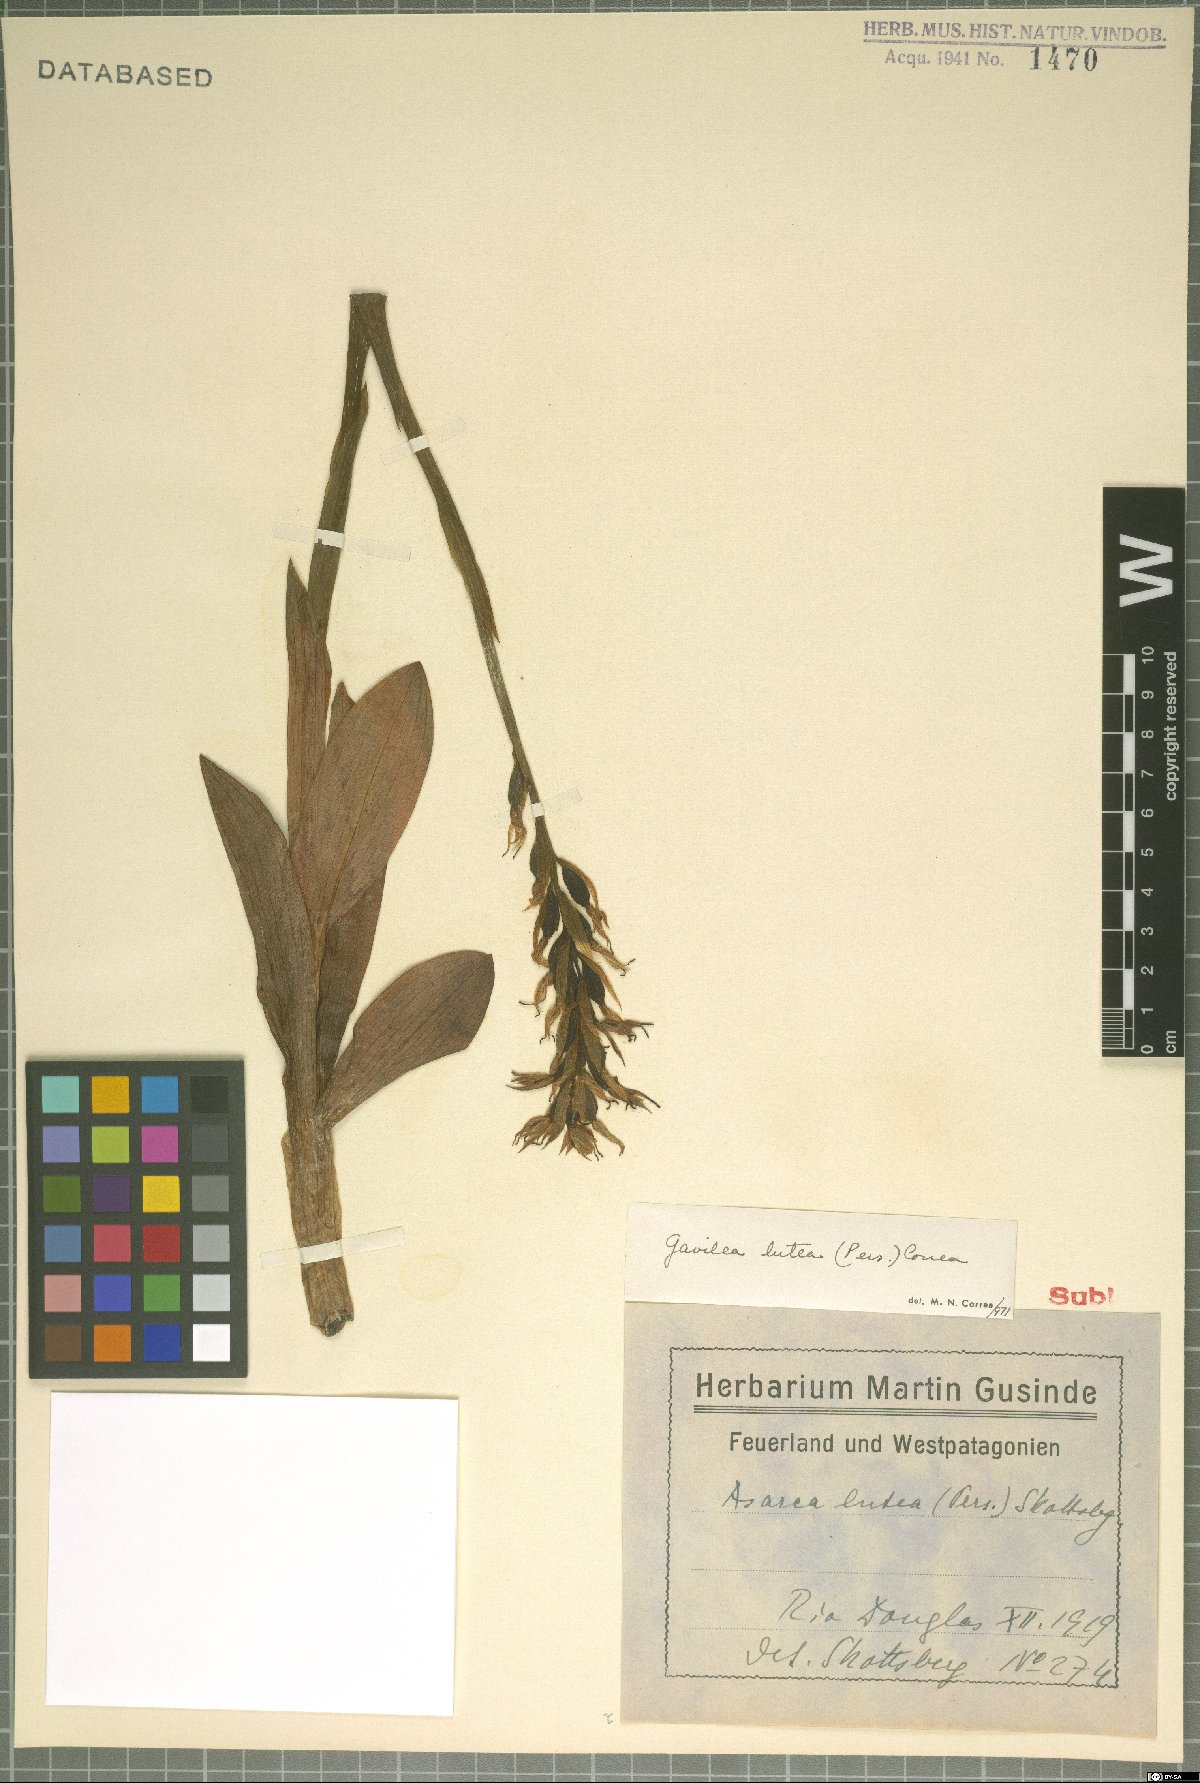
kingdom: Plantae
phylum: Tracheophyta
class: Liliopsida
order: Asparagales
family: Orchidaceae
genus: Gavilea
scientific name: Gavilea lutea
